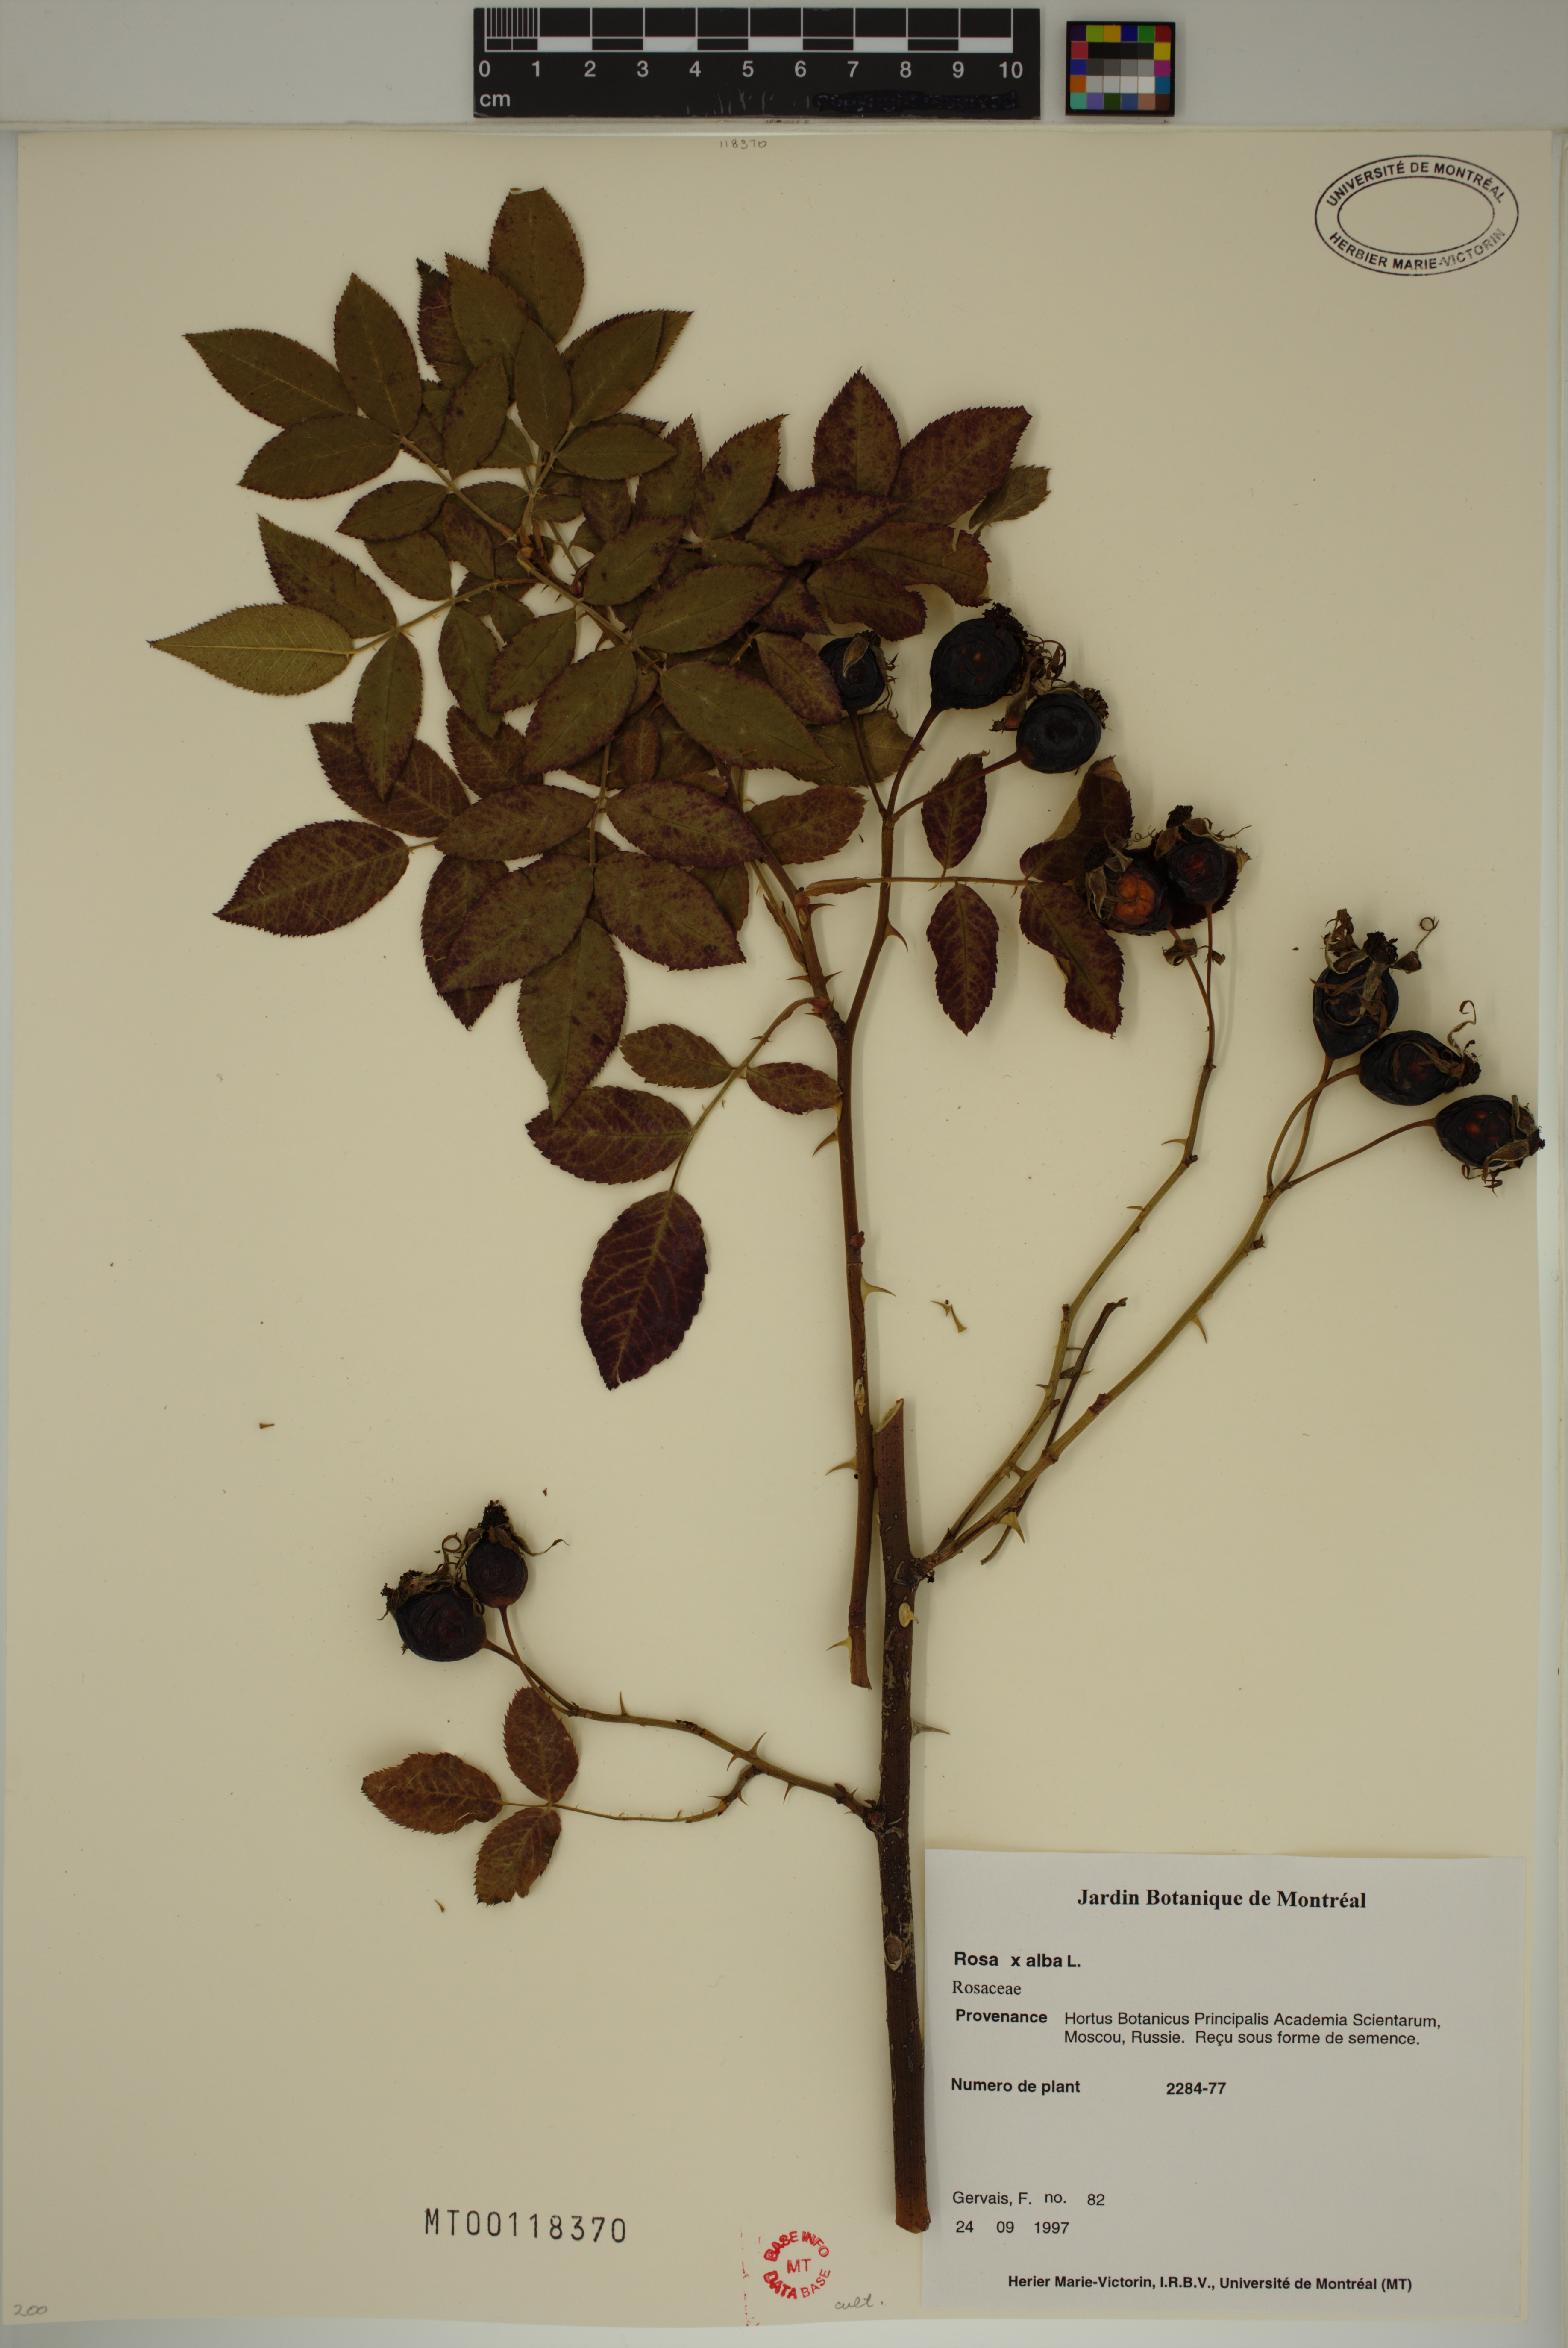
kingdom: Plantae
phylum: Tracheophyta
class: Magnoliopsida
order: Rosales
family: Rosaceae
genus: Rosa
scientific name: Rosa alba
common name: White rose
